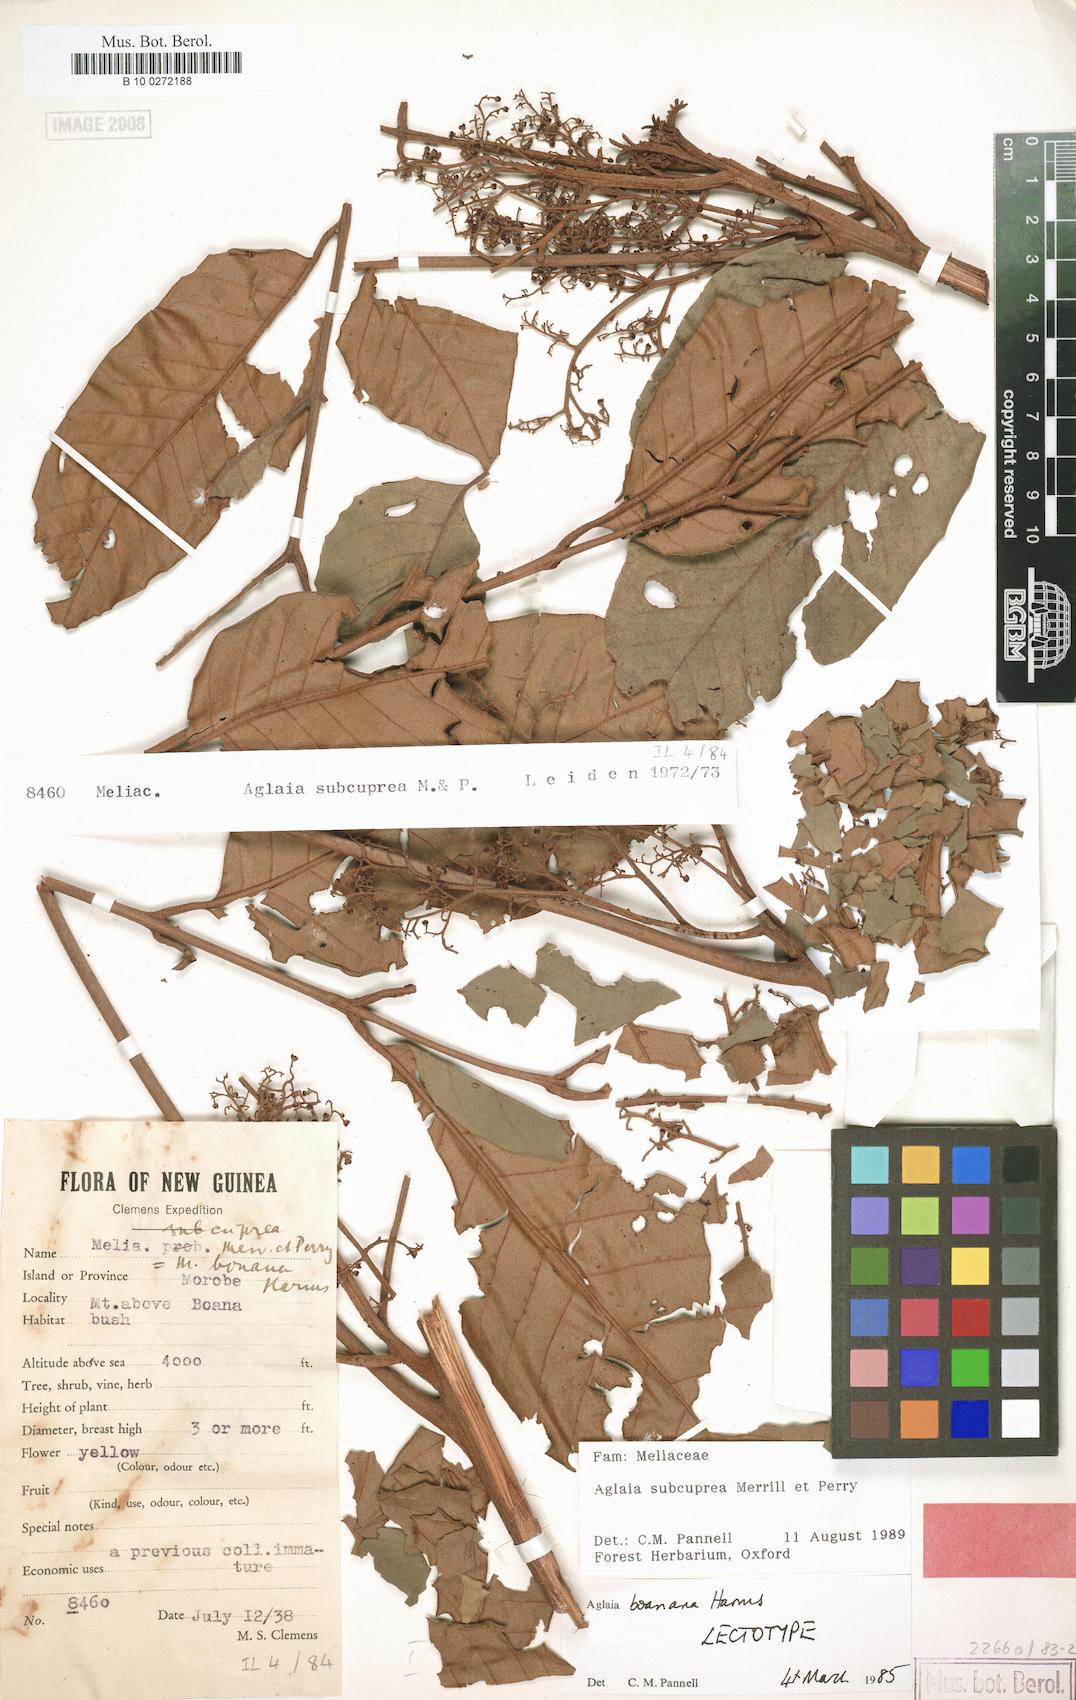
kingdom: Plantae
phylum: Tracheophyta
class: Magnoliopsida
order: Sapindales
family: Meliaceae
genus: Aglaia
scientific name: Aglaia subcuprea
